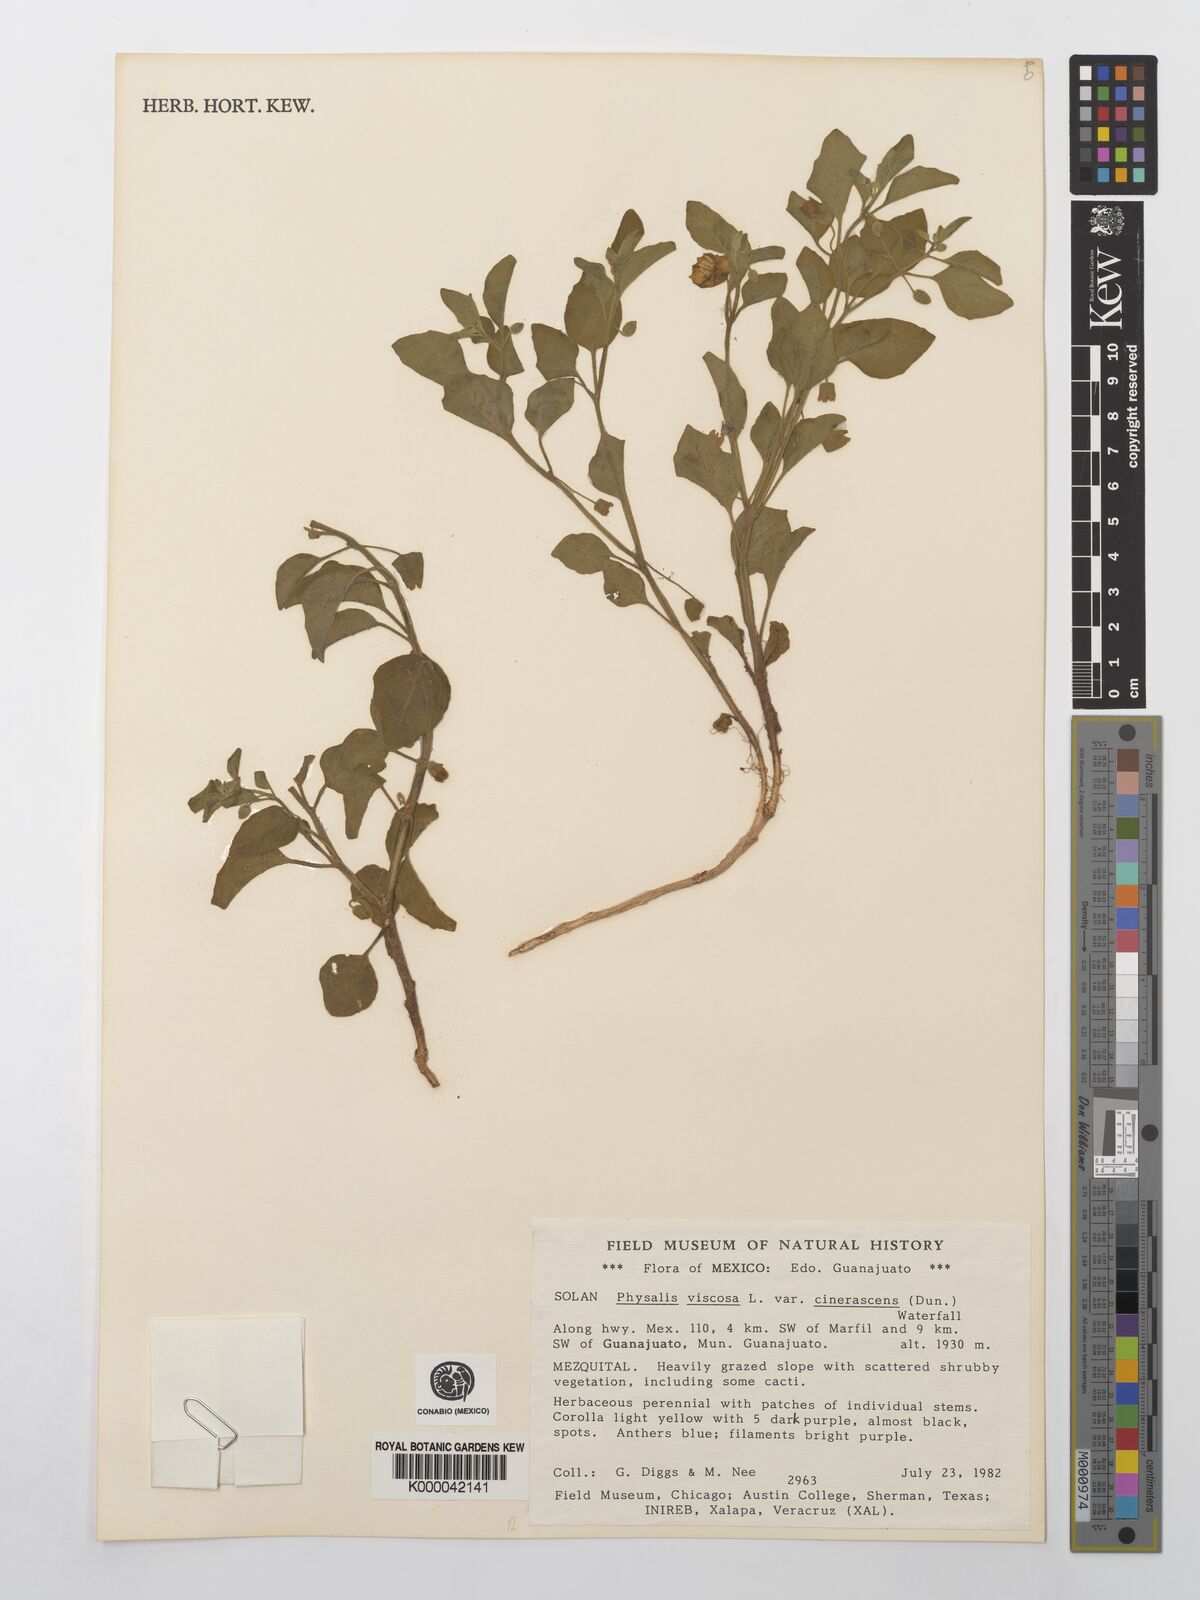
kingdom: Plantae
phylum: Tracheophyta
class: Magnoliopsida
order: Solanales
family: Solanaceae
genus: Physalis
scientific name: Physalis cinerascens
